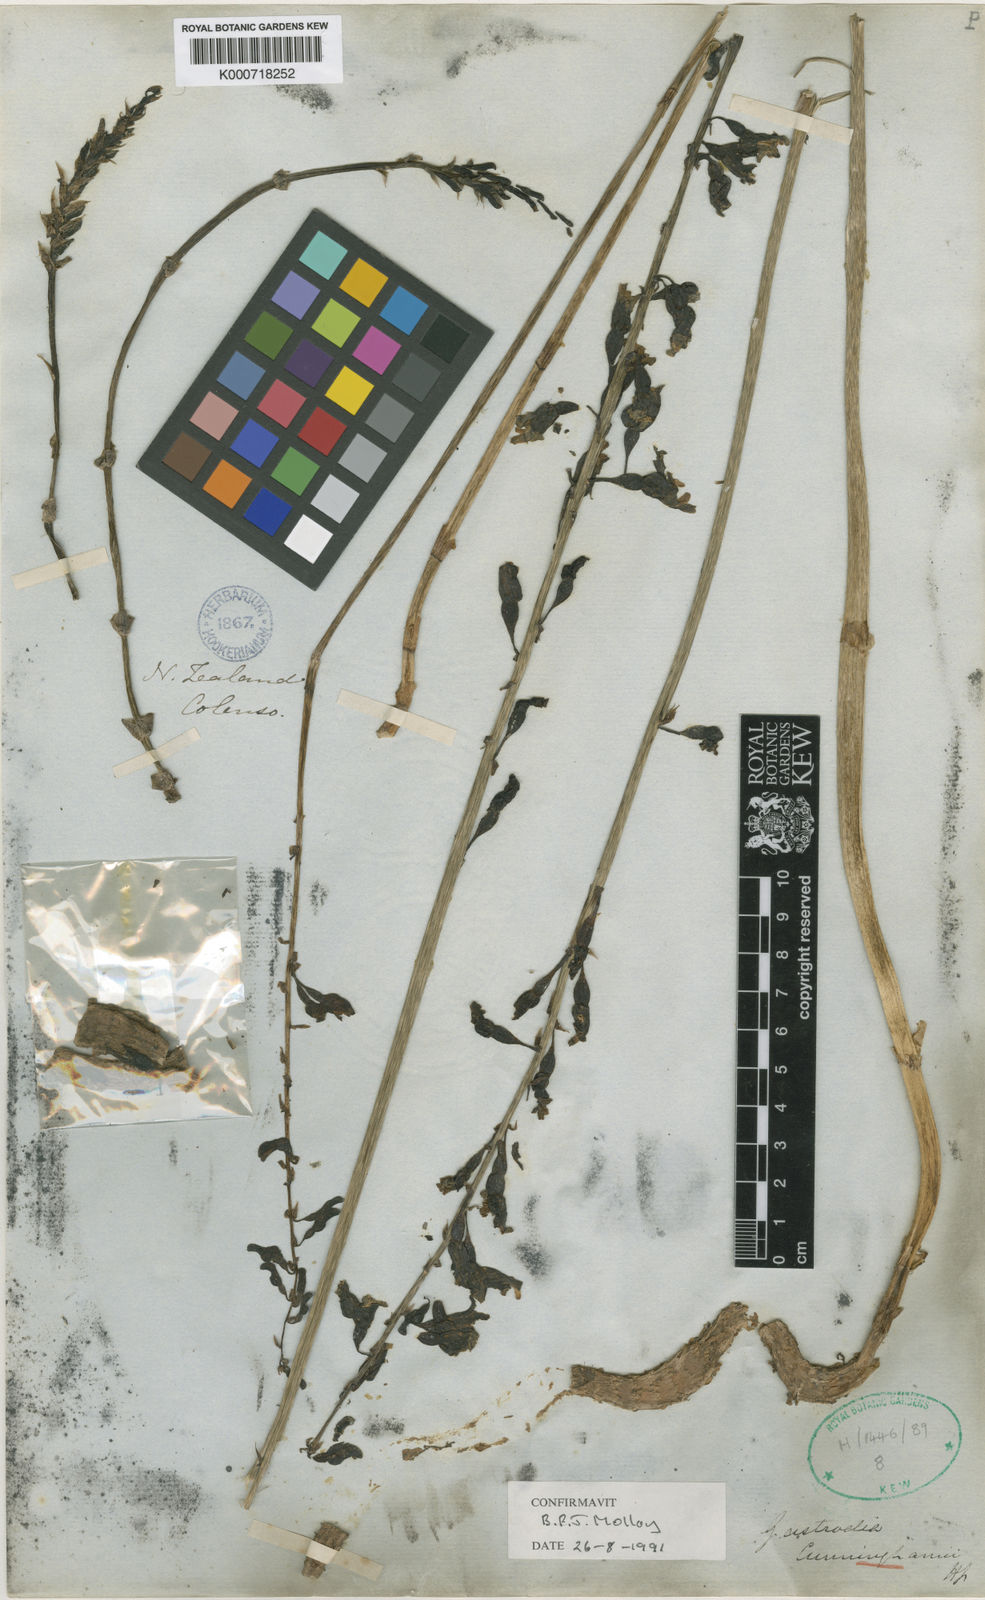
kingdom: Plantae
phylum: Tracheophyta
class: Liliopsida
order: Asparagales
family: Orchidaceae
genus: Gastrodia
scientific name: Gastrodia cunninghamii
